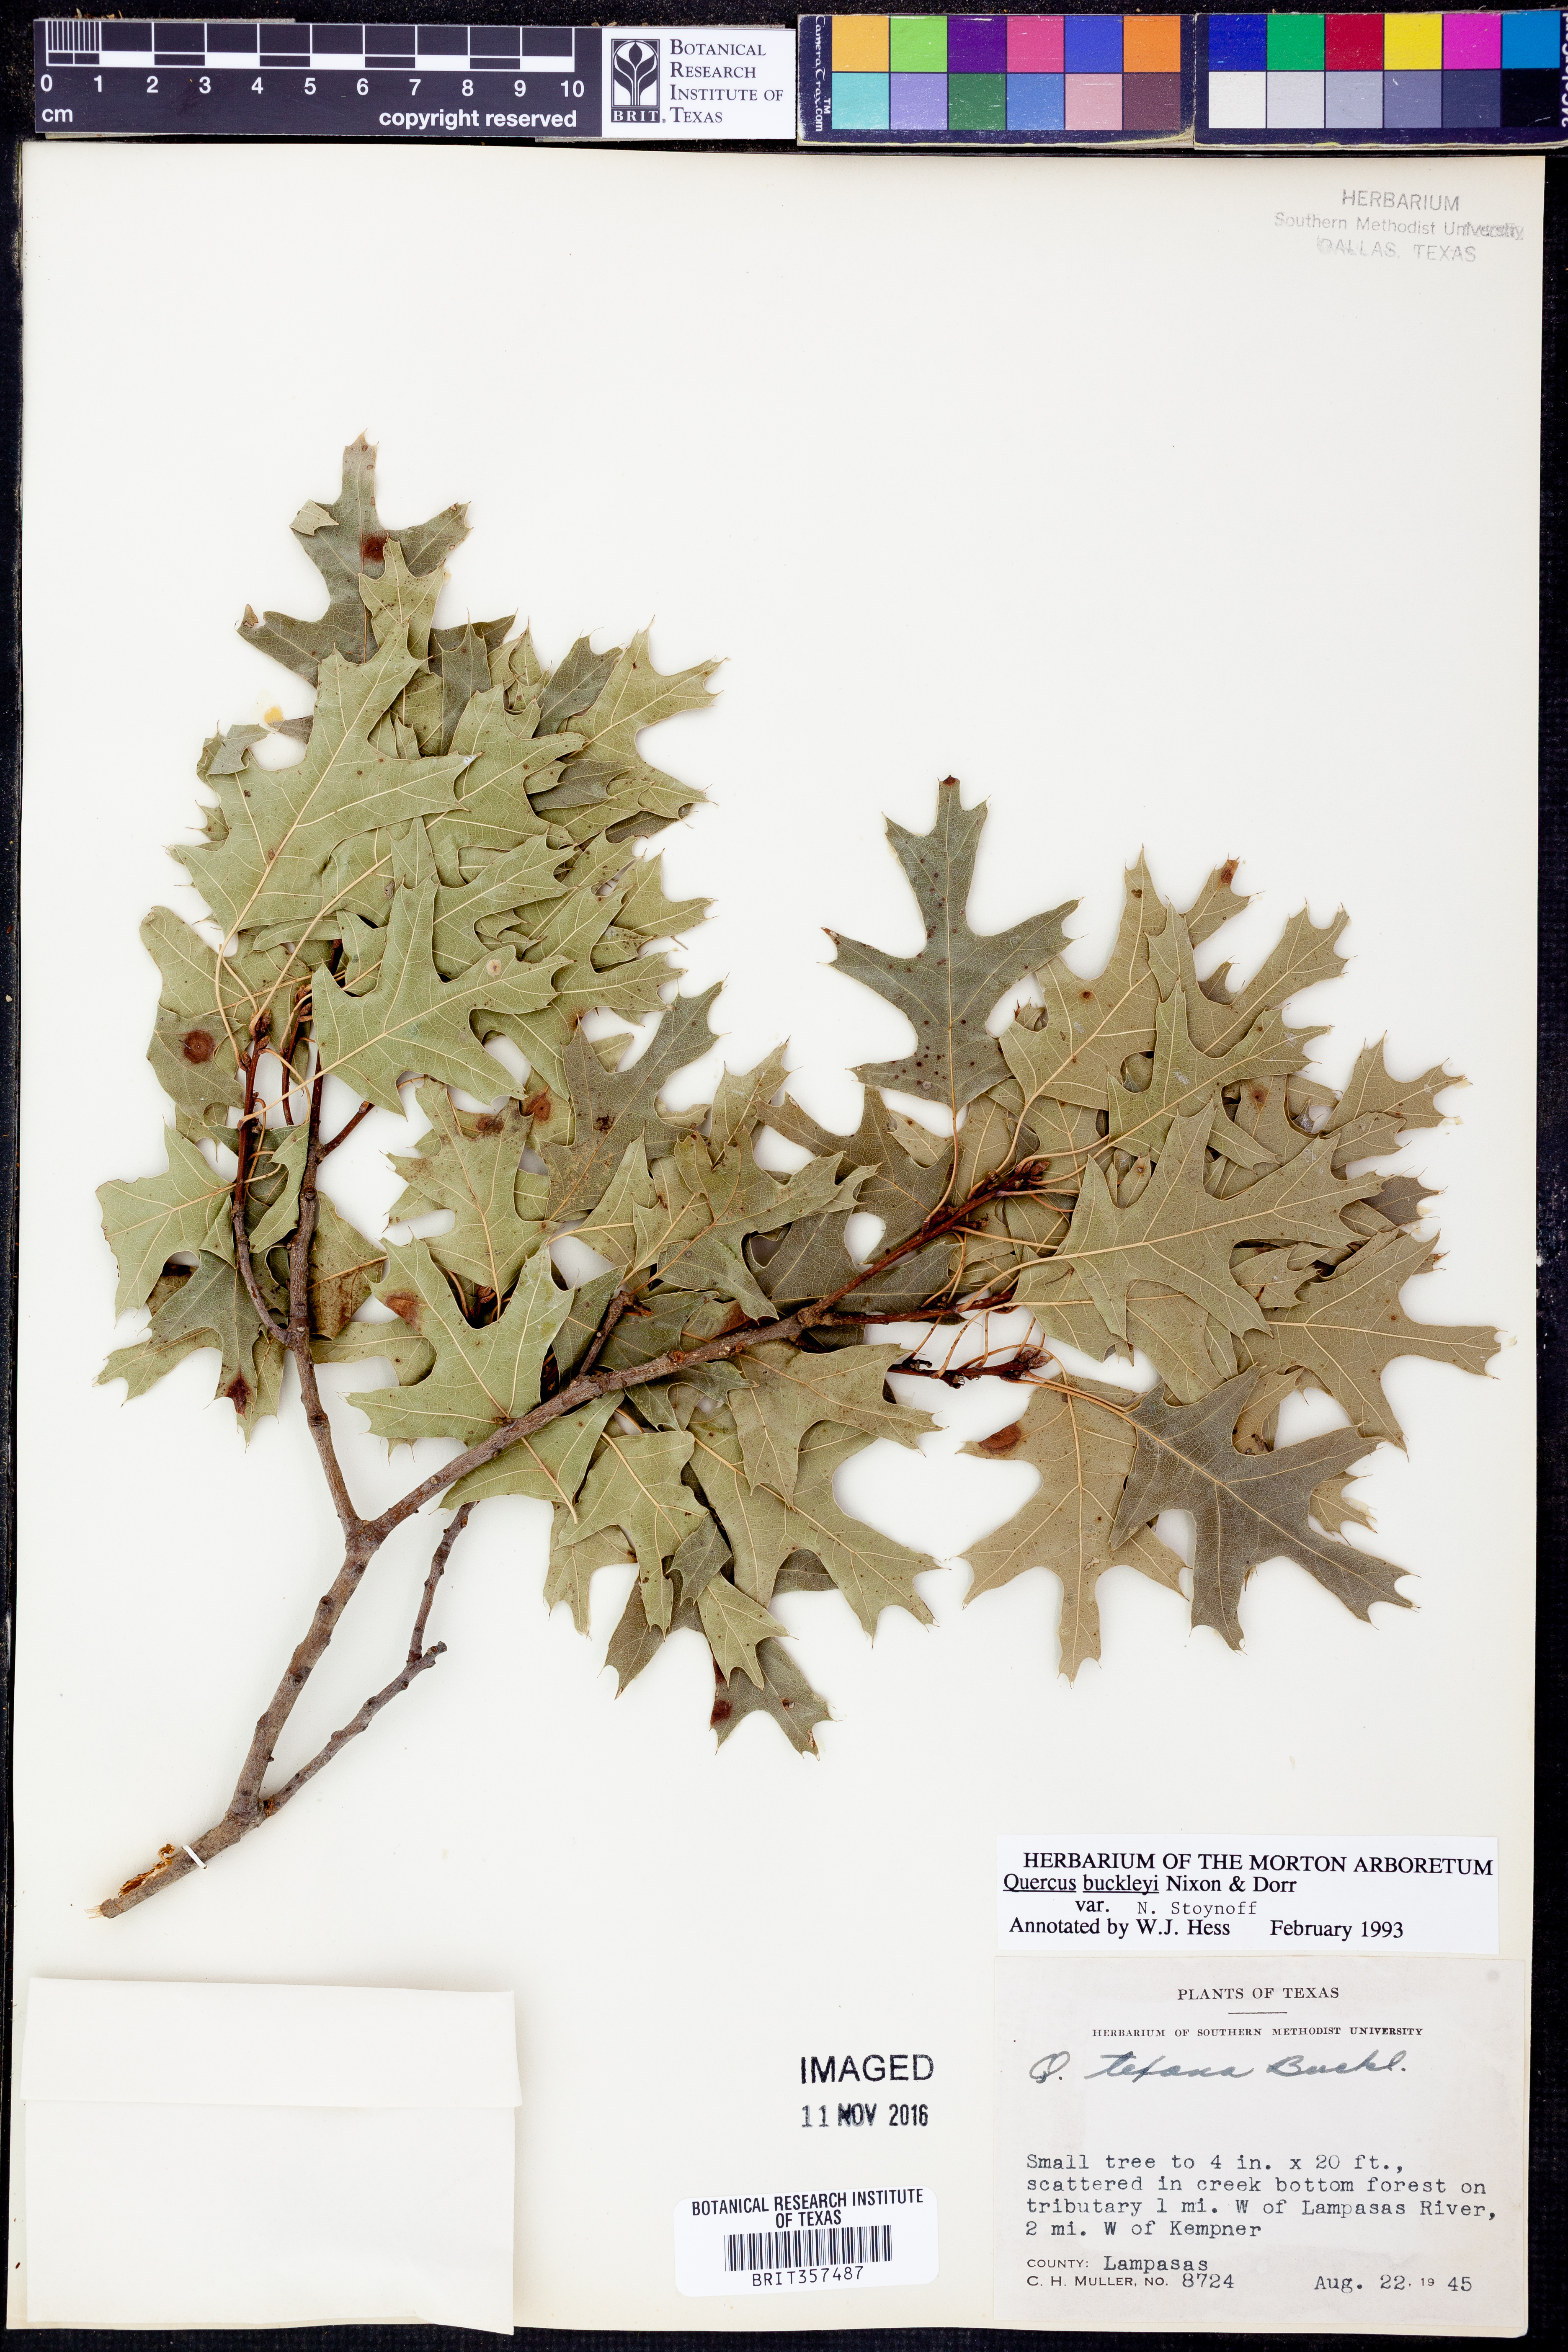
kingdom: Plantae
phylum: Tracheophyta
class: Magnoliopsida
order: Fagales
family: Fagaceae
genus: Quercus
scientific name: Quercus buckleyi
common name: Buckley oak
